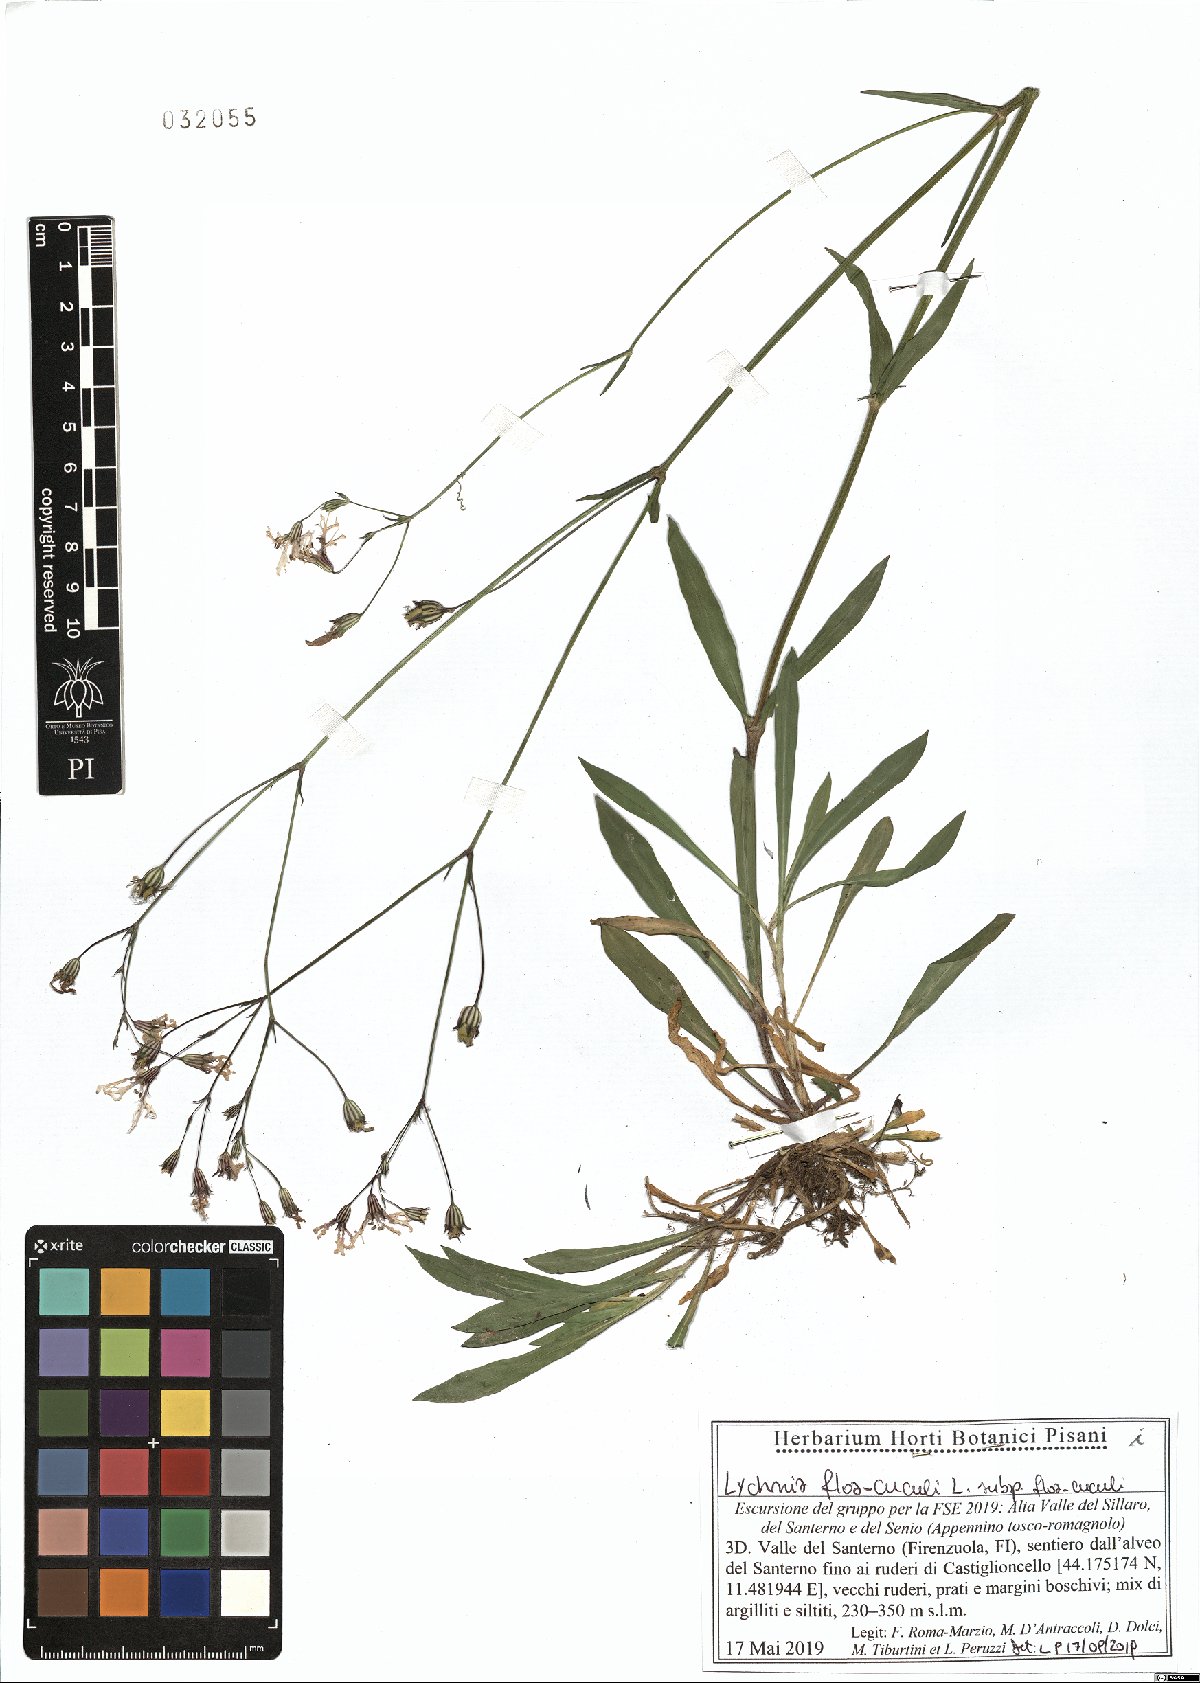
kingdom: Plantae
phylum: Tracheophyta
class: Magnoliopsida
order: Caryophyllales
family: Caryophyllaceae
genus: Silene
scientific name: Silene flos-cuculi
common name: Ragged-robin
